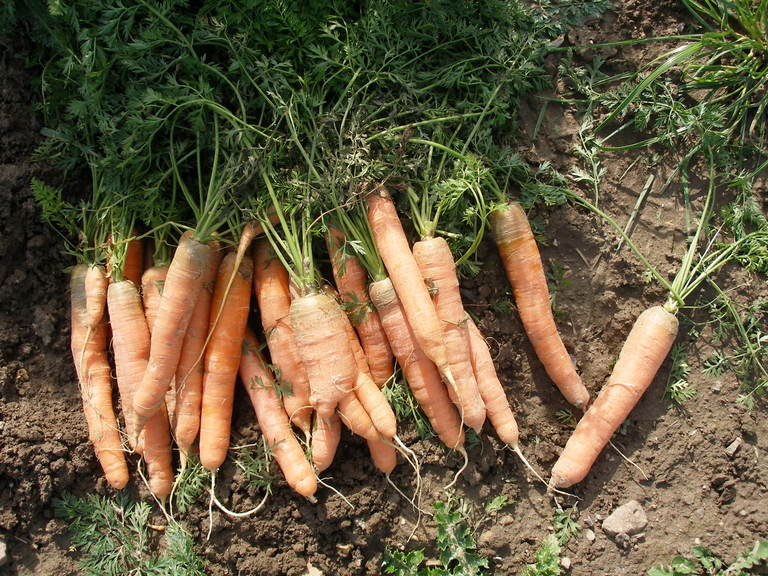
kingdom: Plantae
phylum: Tracheophyta
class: Magnoliopsida
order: Apiales
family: Apiaceae
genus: Daucus
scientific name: Daucus carota
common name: Wild carrot
